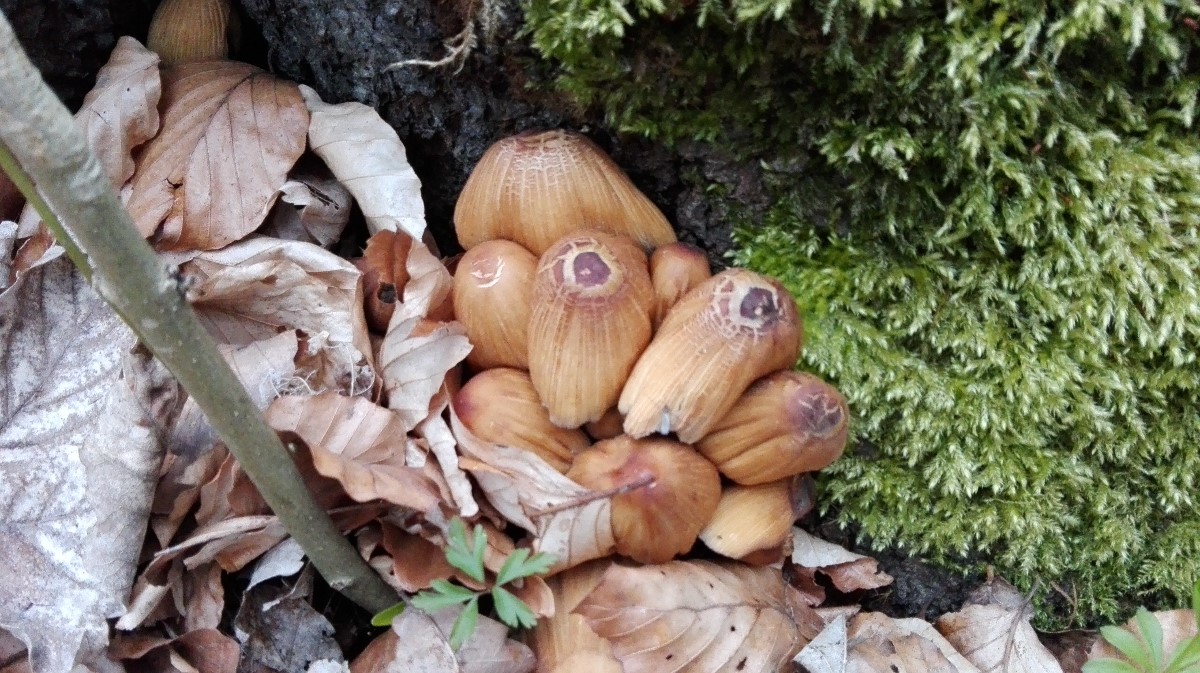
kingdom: Fungi
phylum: Basidiomycota
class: Agaricomycetes
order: Agaricales
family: Psathyrellaceae
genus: Coprinellus
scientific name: Coprinellus micaceus
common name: glimmer-blækhat
